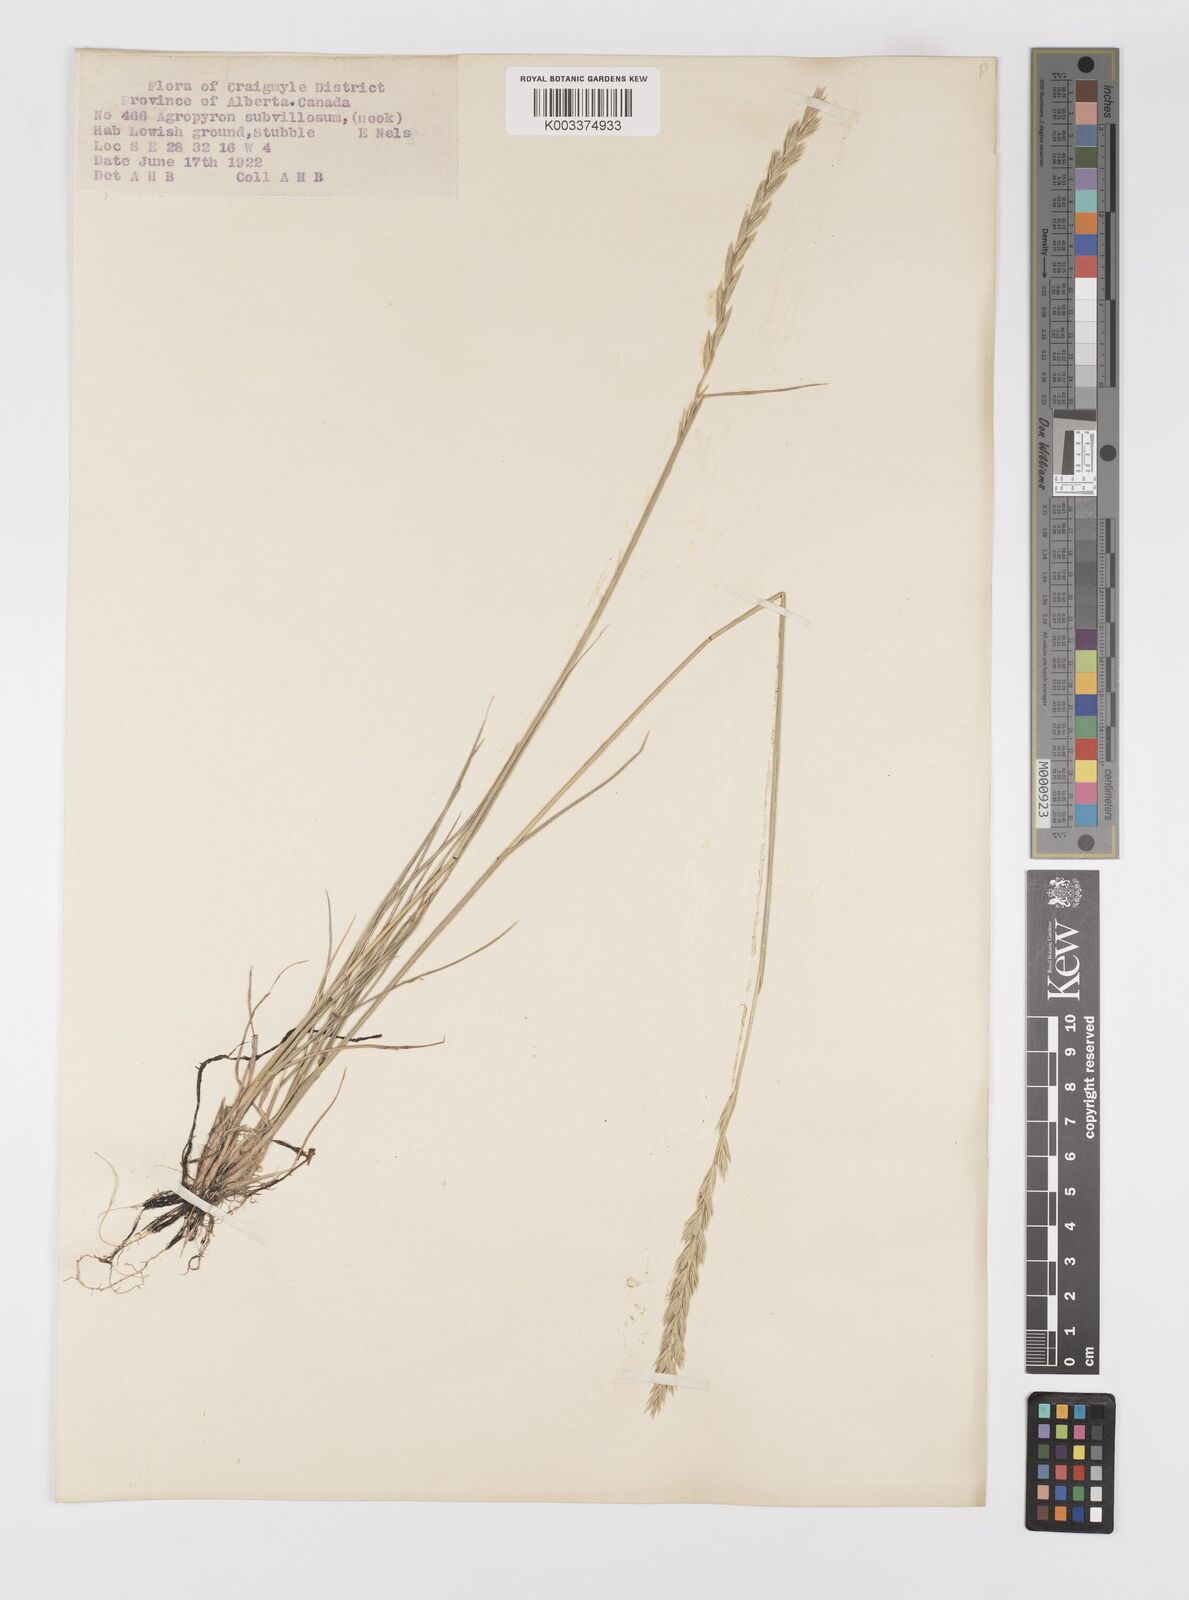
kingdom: Plantae
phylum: Tracheophyta
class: Liliopsida
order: Poales
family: Poaceae
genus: Elymus
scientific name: Elymus lanceolatus
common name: Thick-spike wheatgrass
